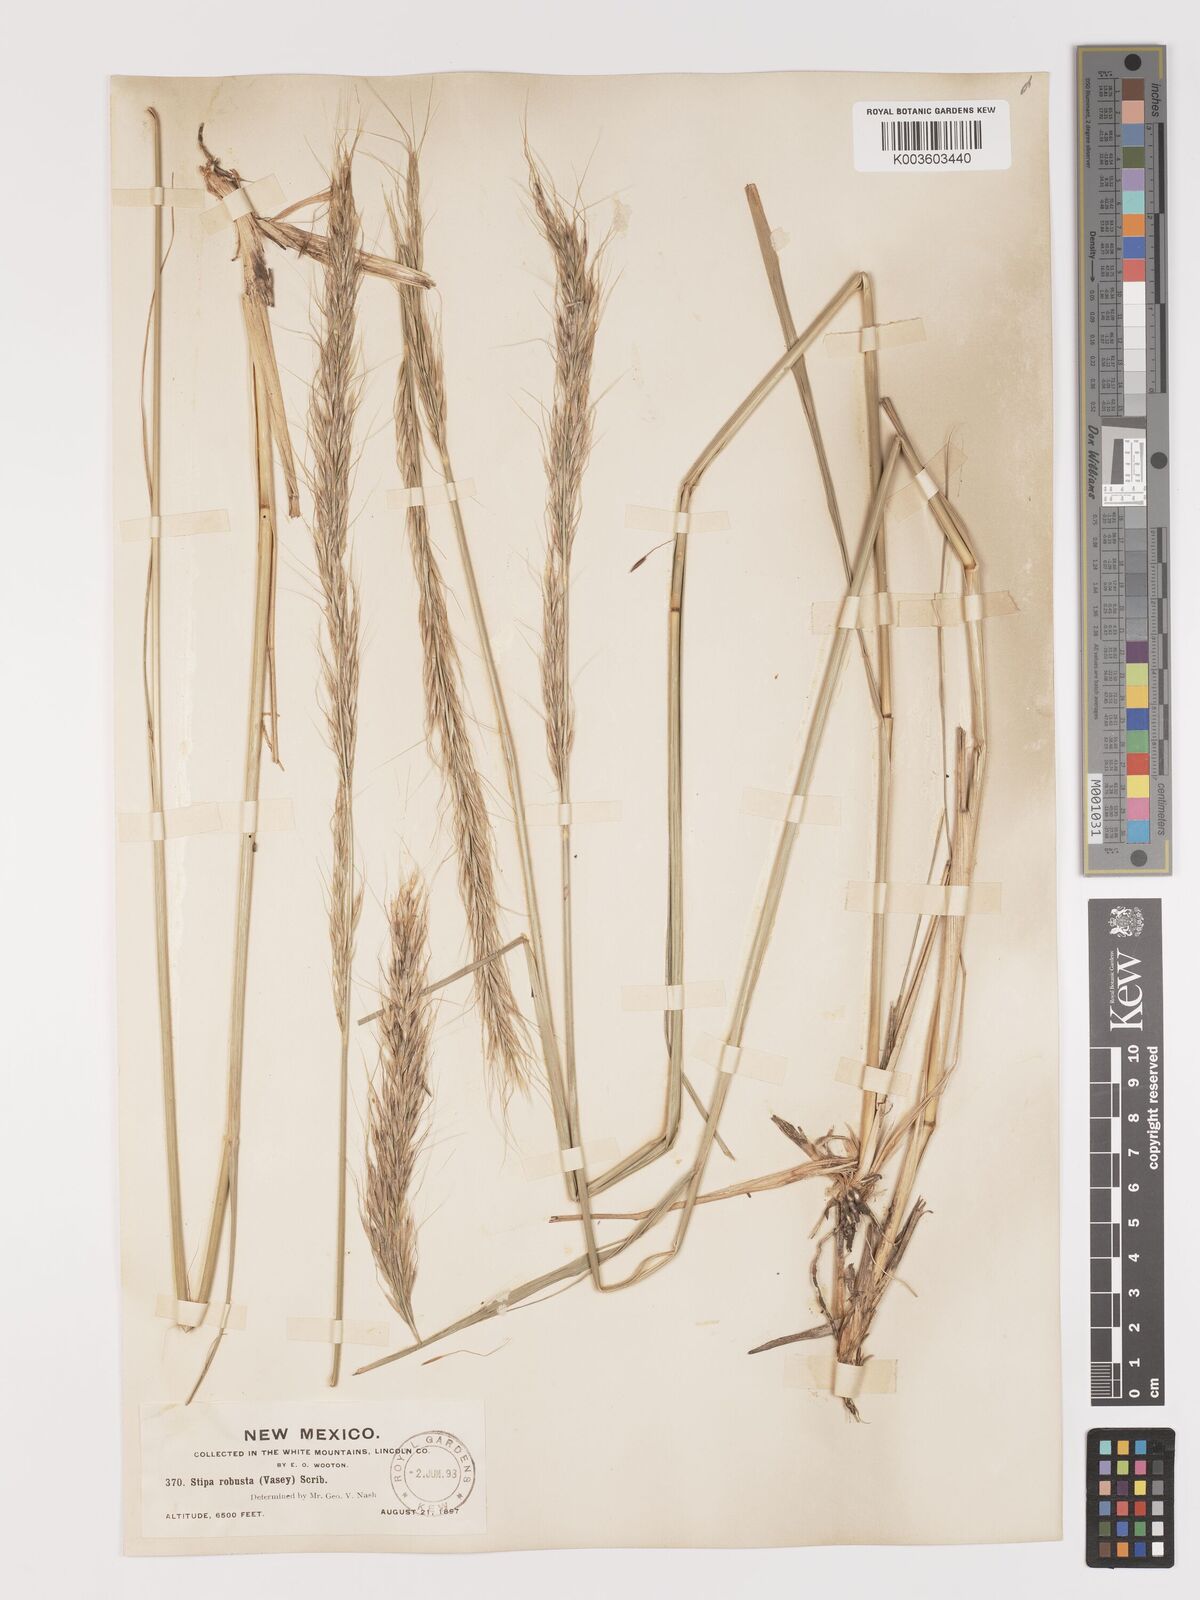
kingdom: Plantae
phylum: Tracheophyta
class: Liliopsida
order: Poales
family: Poaceae
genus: Eriocoma
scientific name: Eriocoma robusta
